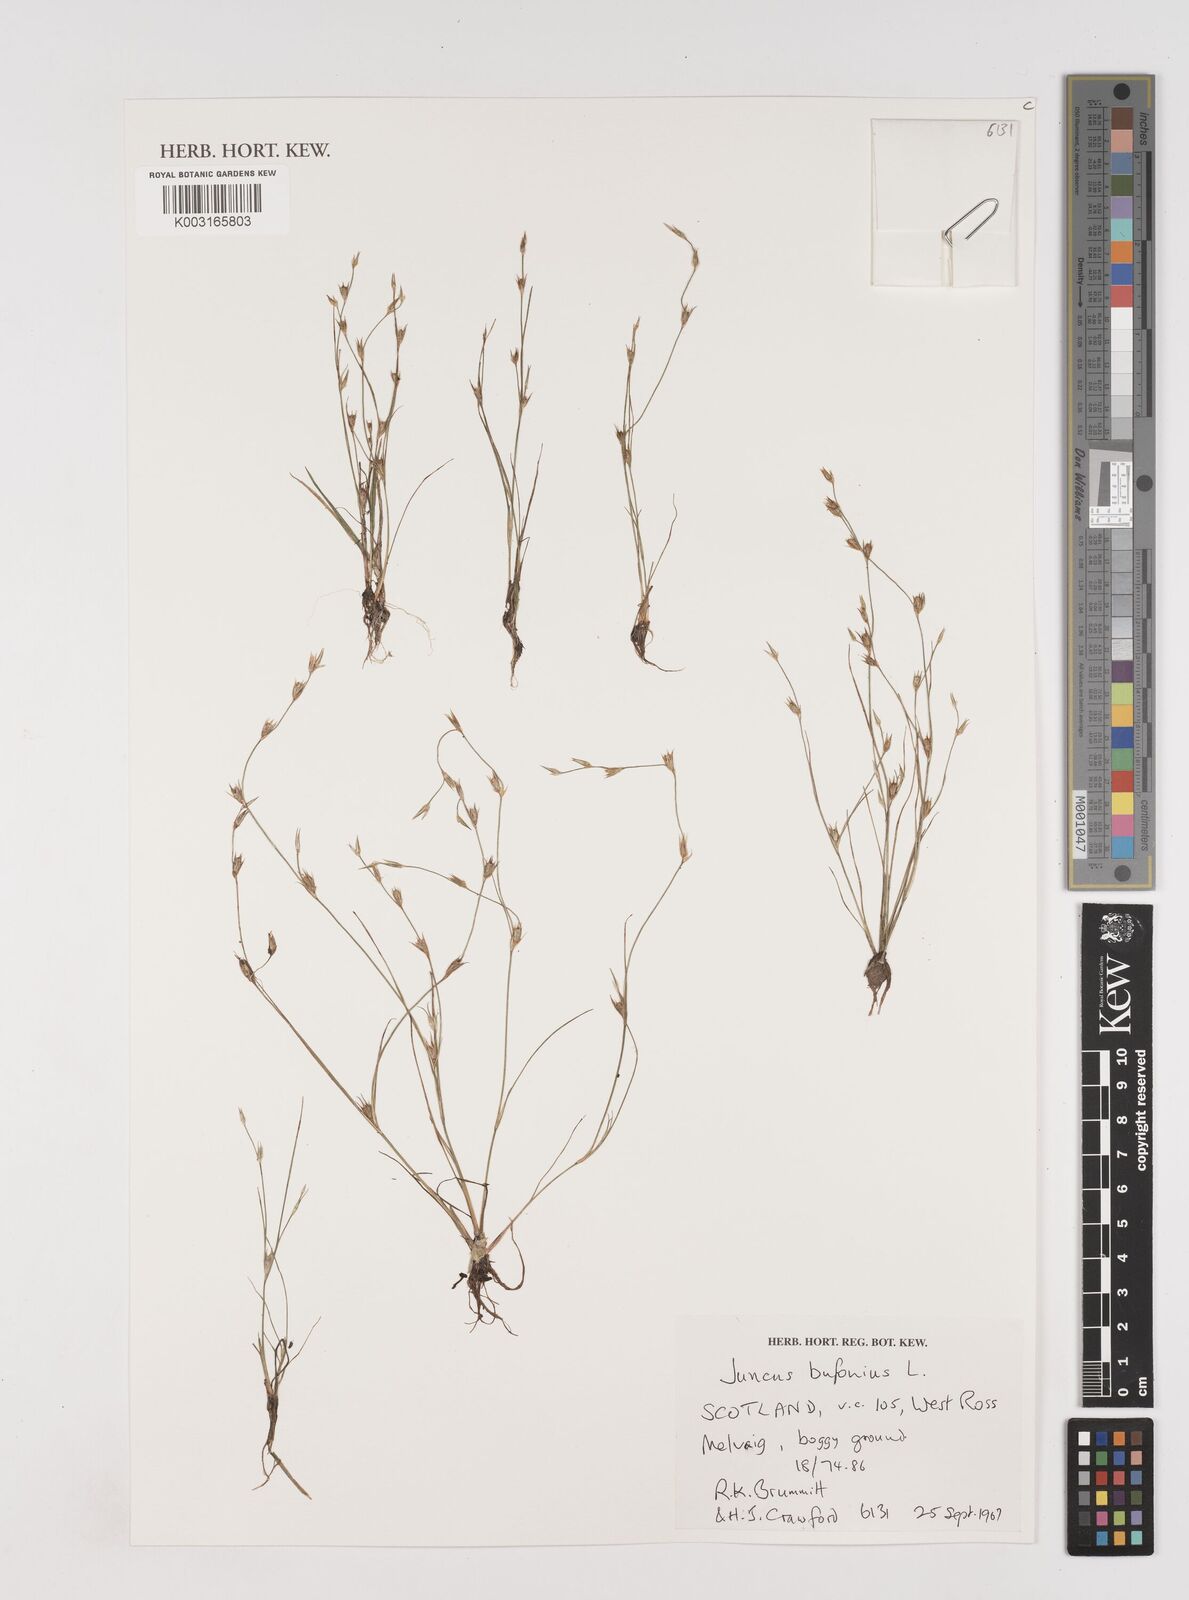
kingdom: Plantae
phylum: Tracheophyta
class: Liliopsida
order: Poales
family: Juncaceae
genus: Juncus
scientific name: Juncus bufonius
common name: Toad rush
